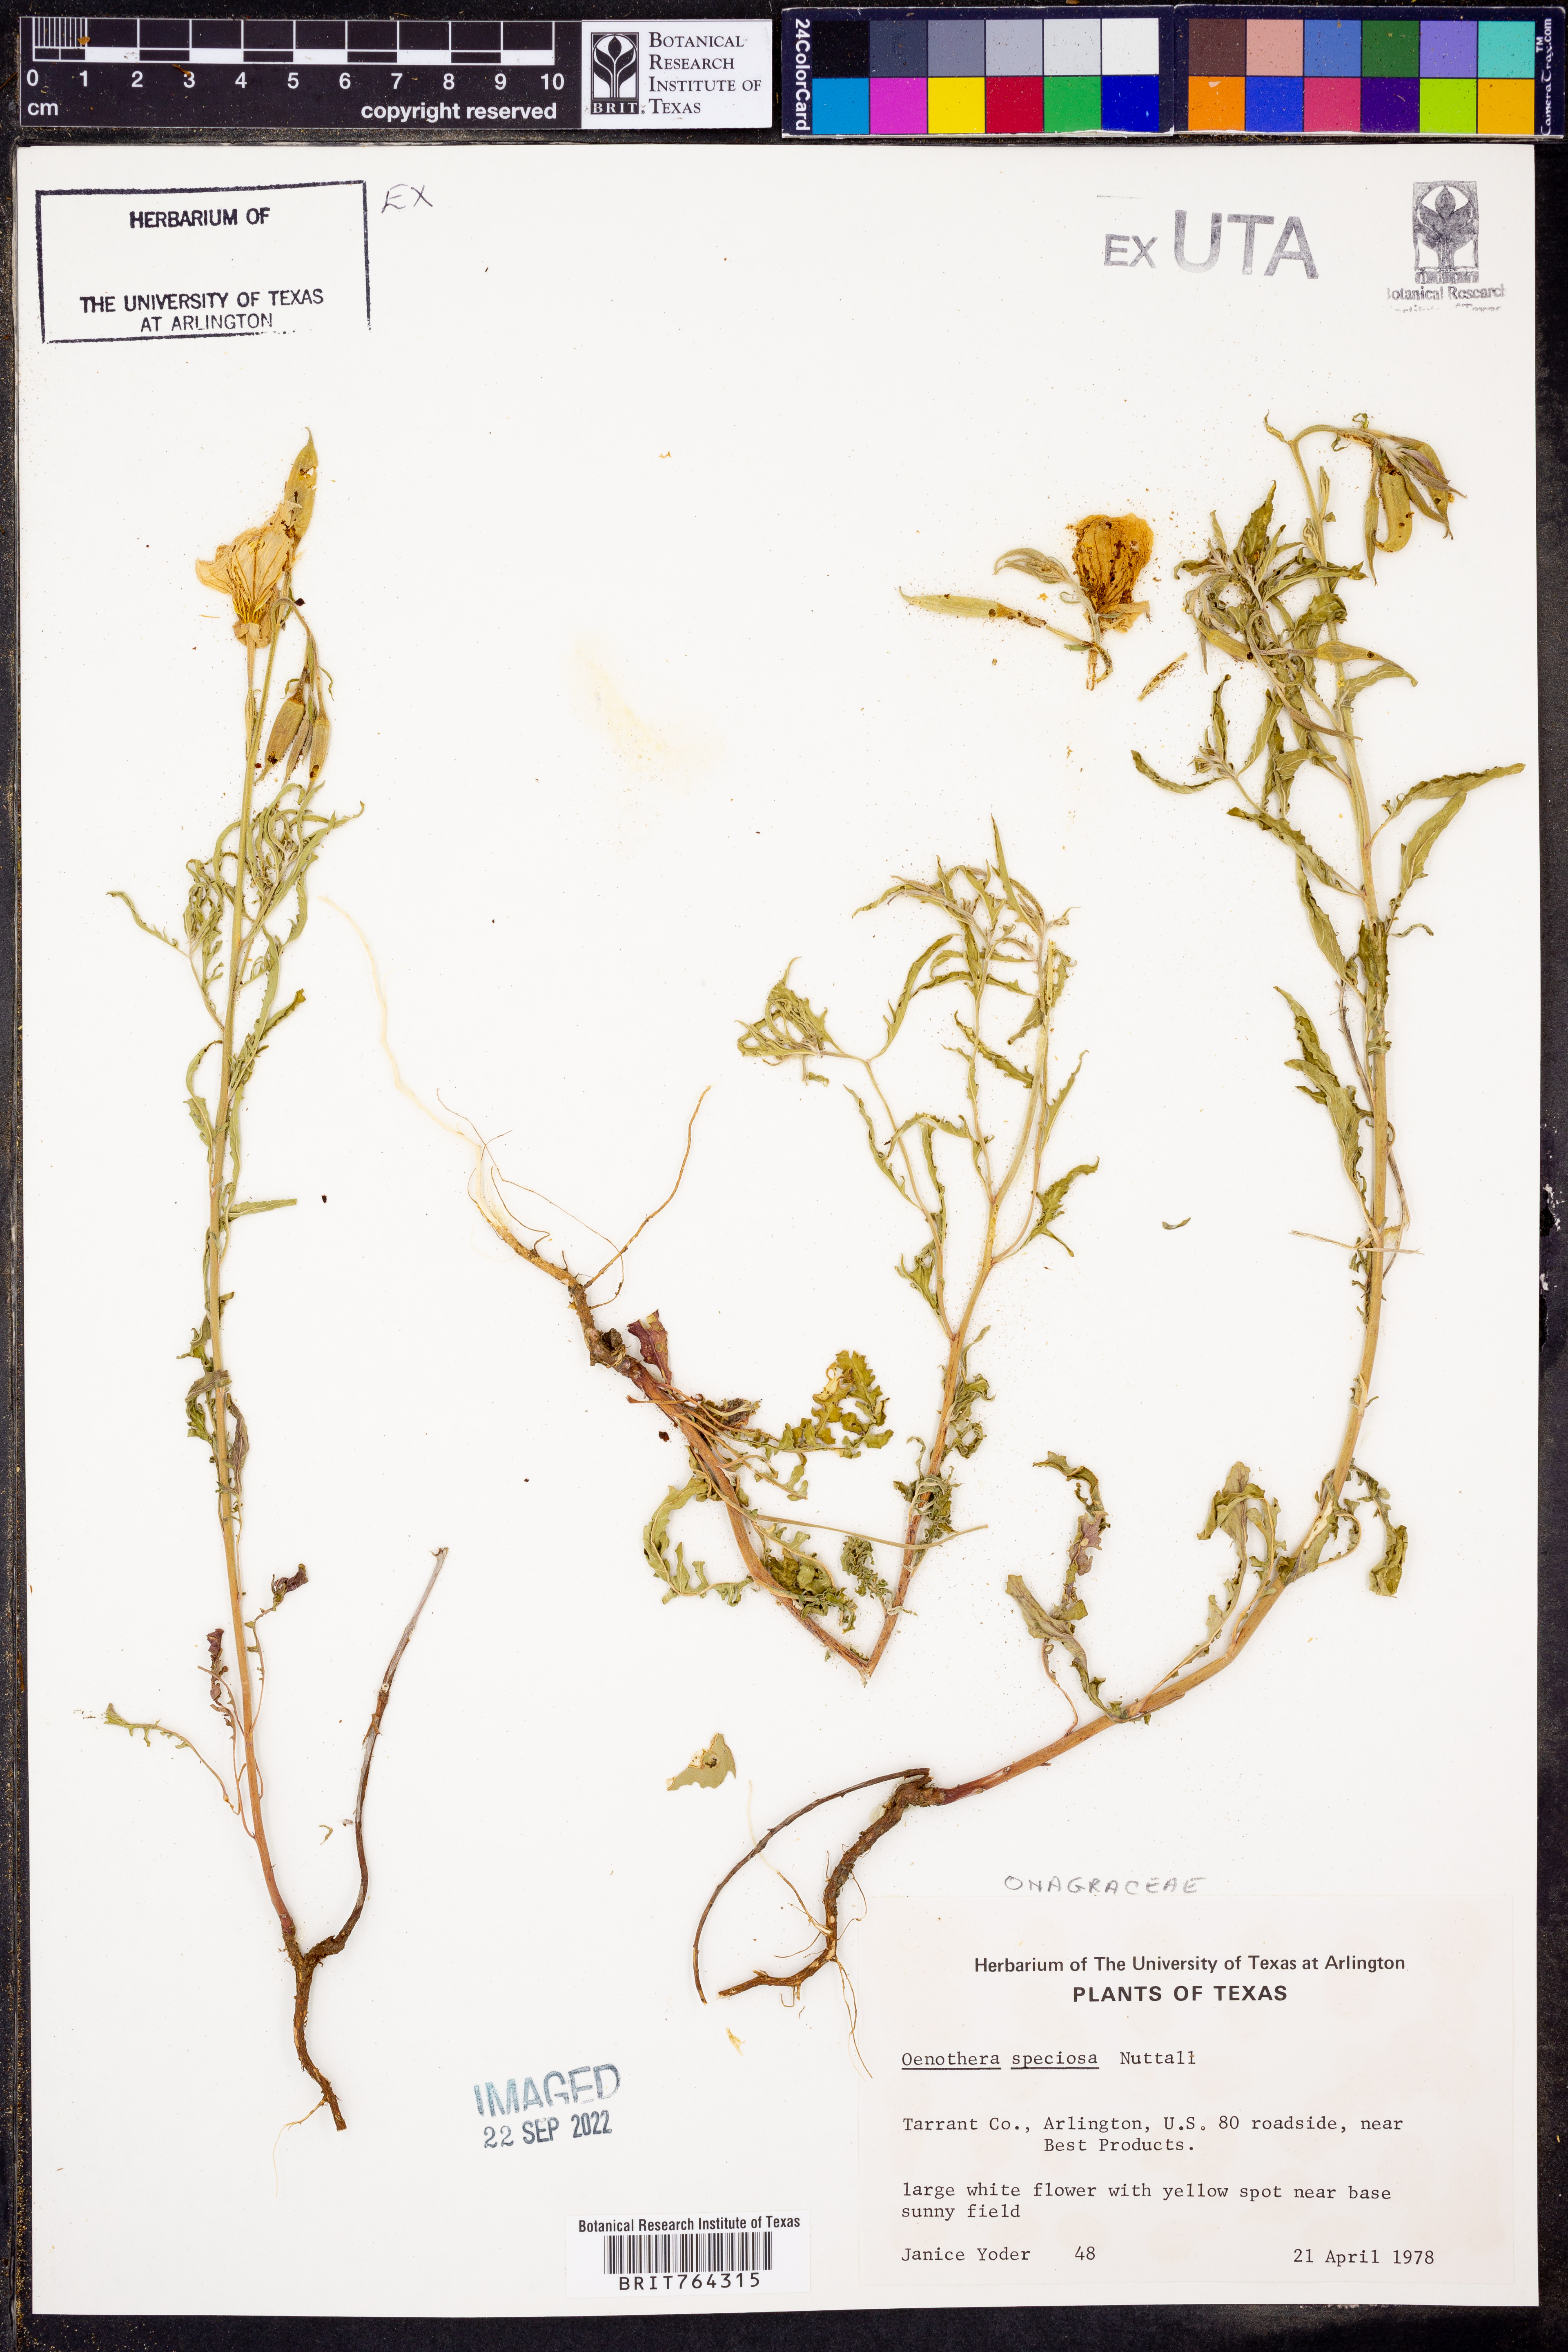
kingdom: Plantae
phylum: Tracheophyta
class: Magnoliopsida
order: Myrtales
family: Onagraceae
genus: Oenothera
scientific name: Oenothera speciosa
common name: White evening-primrose
